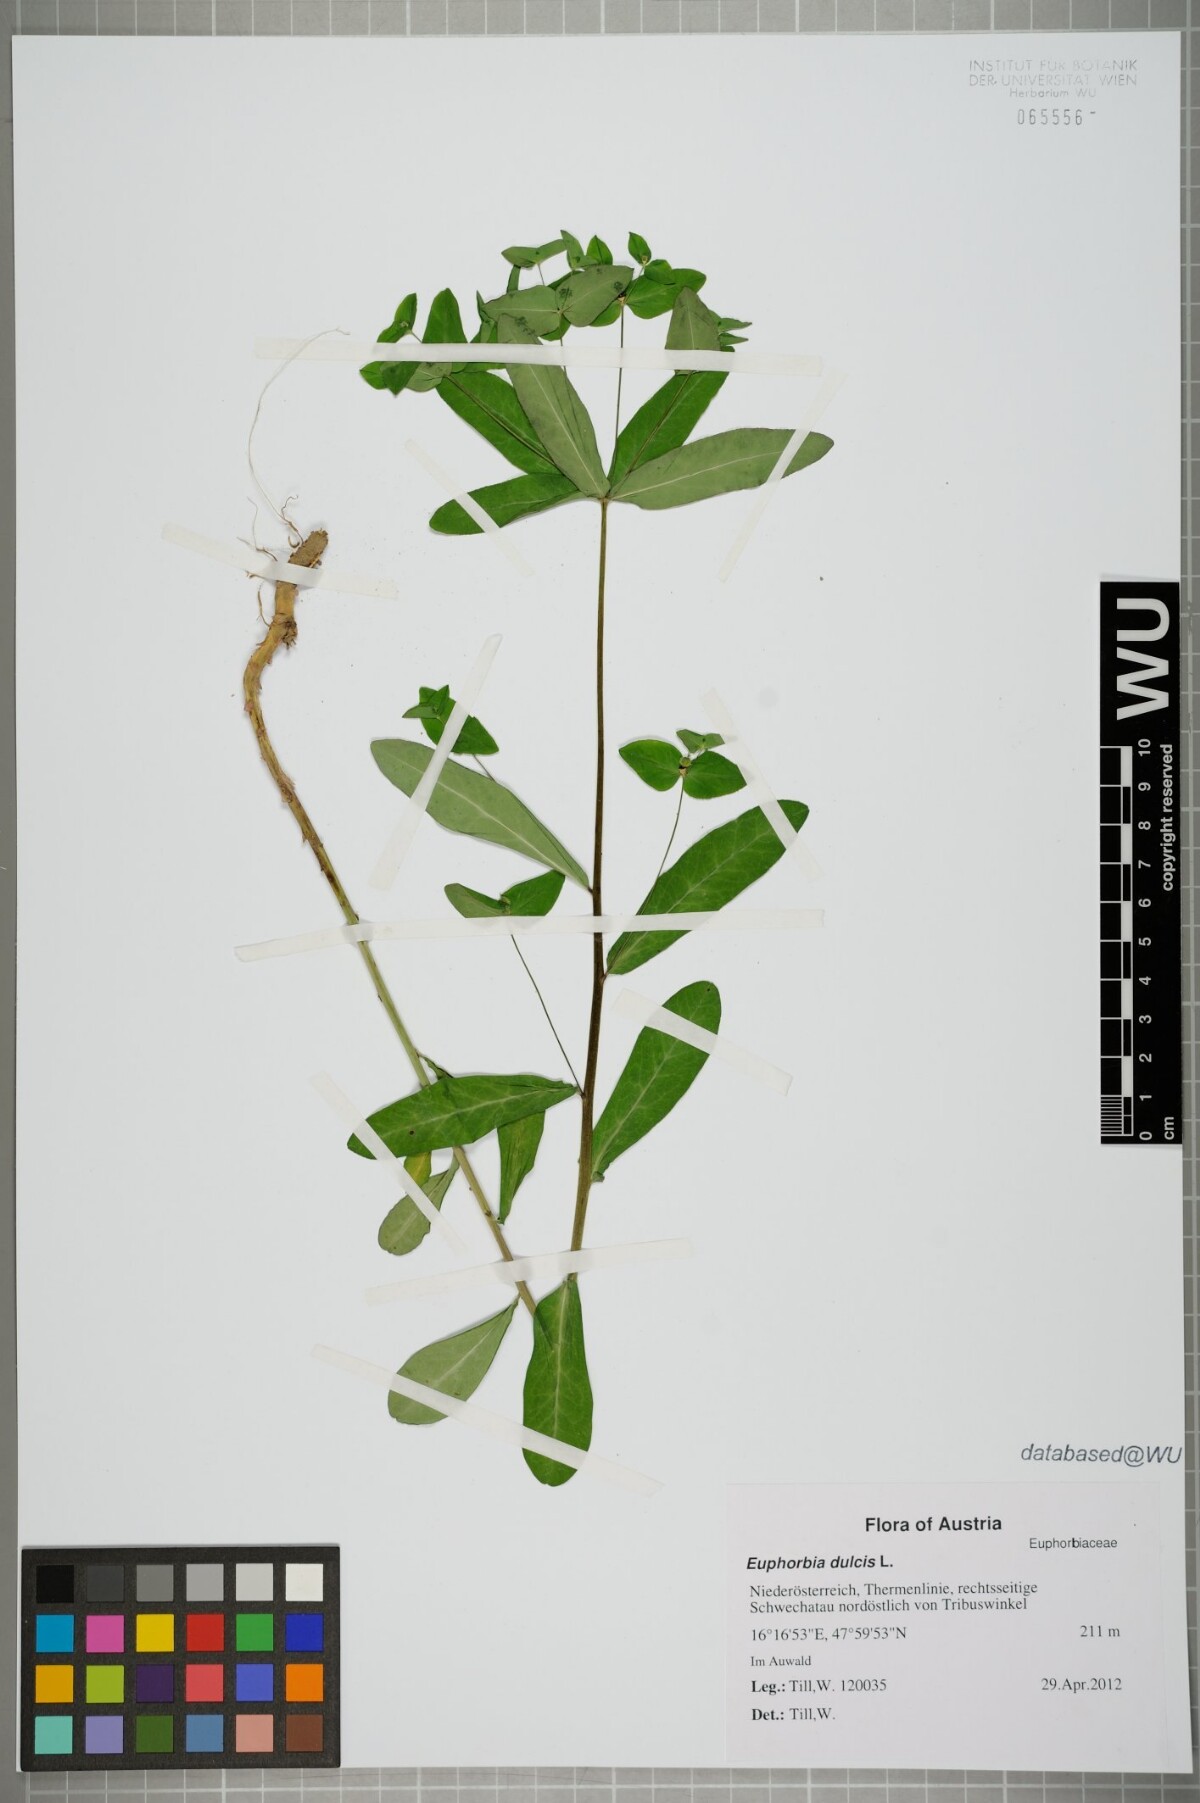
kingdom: Plantae
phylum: Tracheophyta
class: Magnoliopsida
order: Malpighiales
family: Euphorbiaceae
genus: Euphorbia
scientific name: Euphorbia dulcis
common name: Sweet spurge
